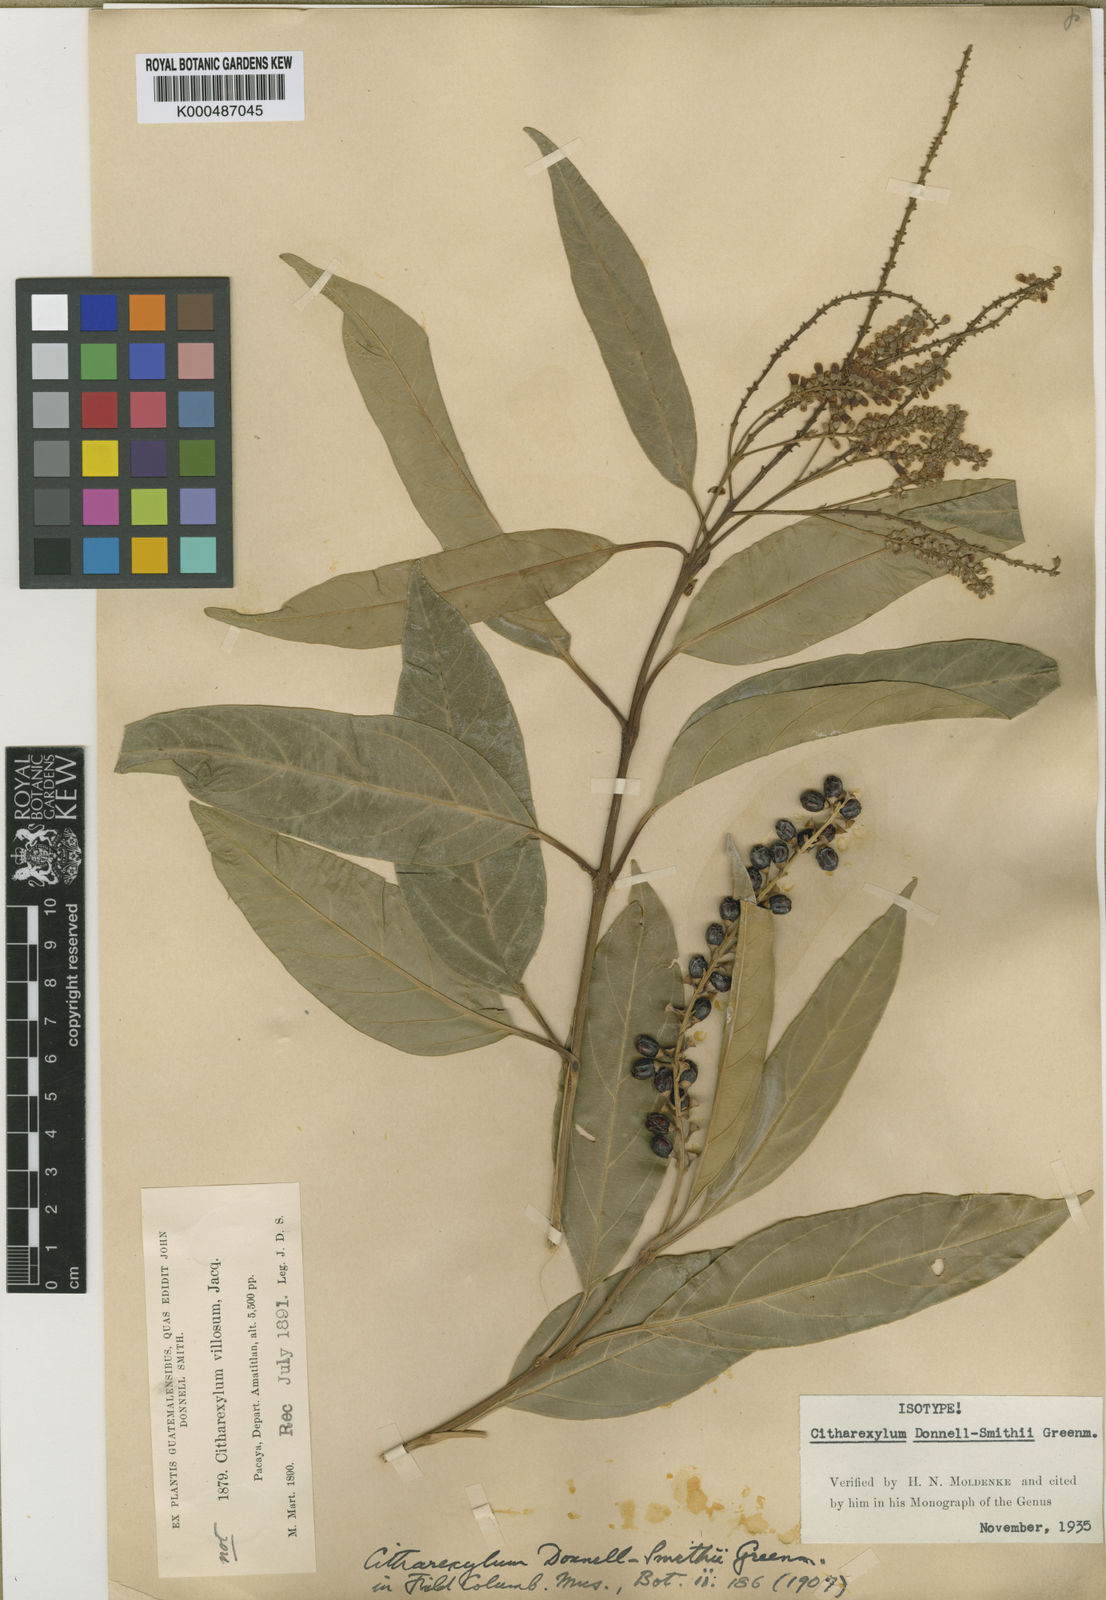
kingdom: Plantae
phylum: Tracheophyta
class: Magnoliopsida
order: Lamiales
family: Verbenaceae
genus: Citharexylum
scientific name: Citharexylum donnell-smithii
